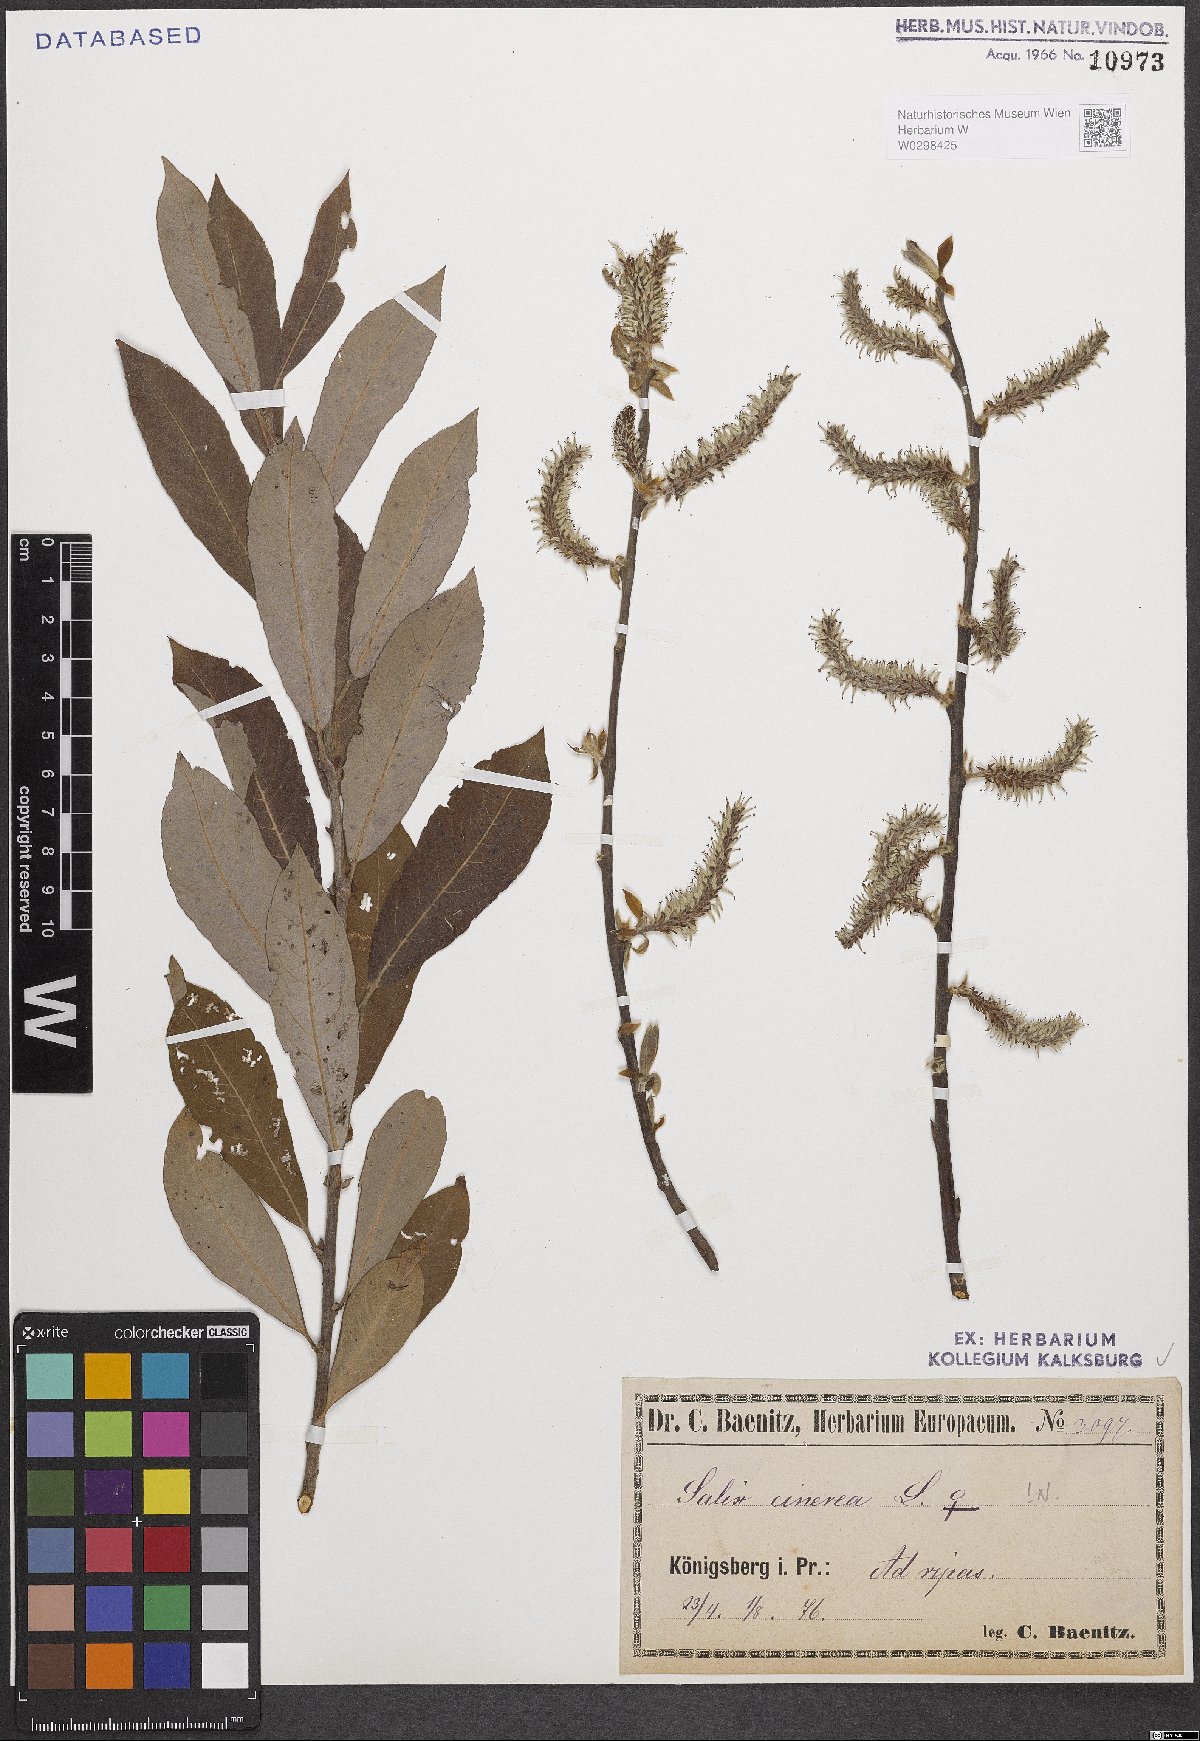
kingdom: Plantae
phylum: Tracheophyta
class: Magnoliopsida
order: Malpighiales
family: Salicaceae
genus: Salix
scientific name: Salix cinerea
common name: Common sallow
